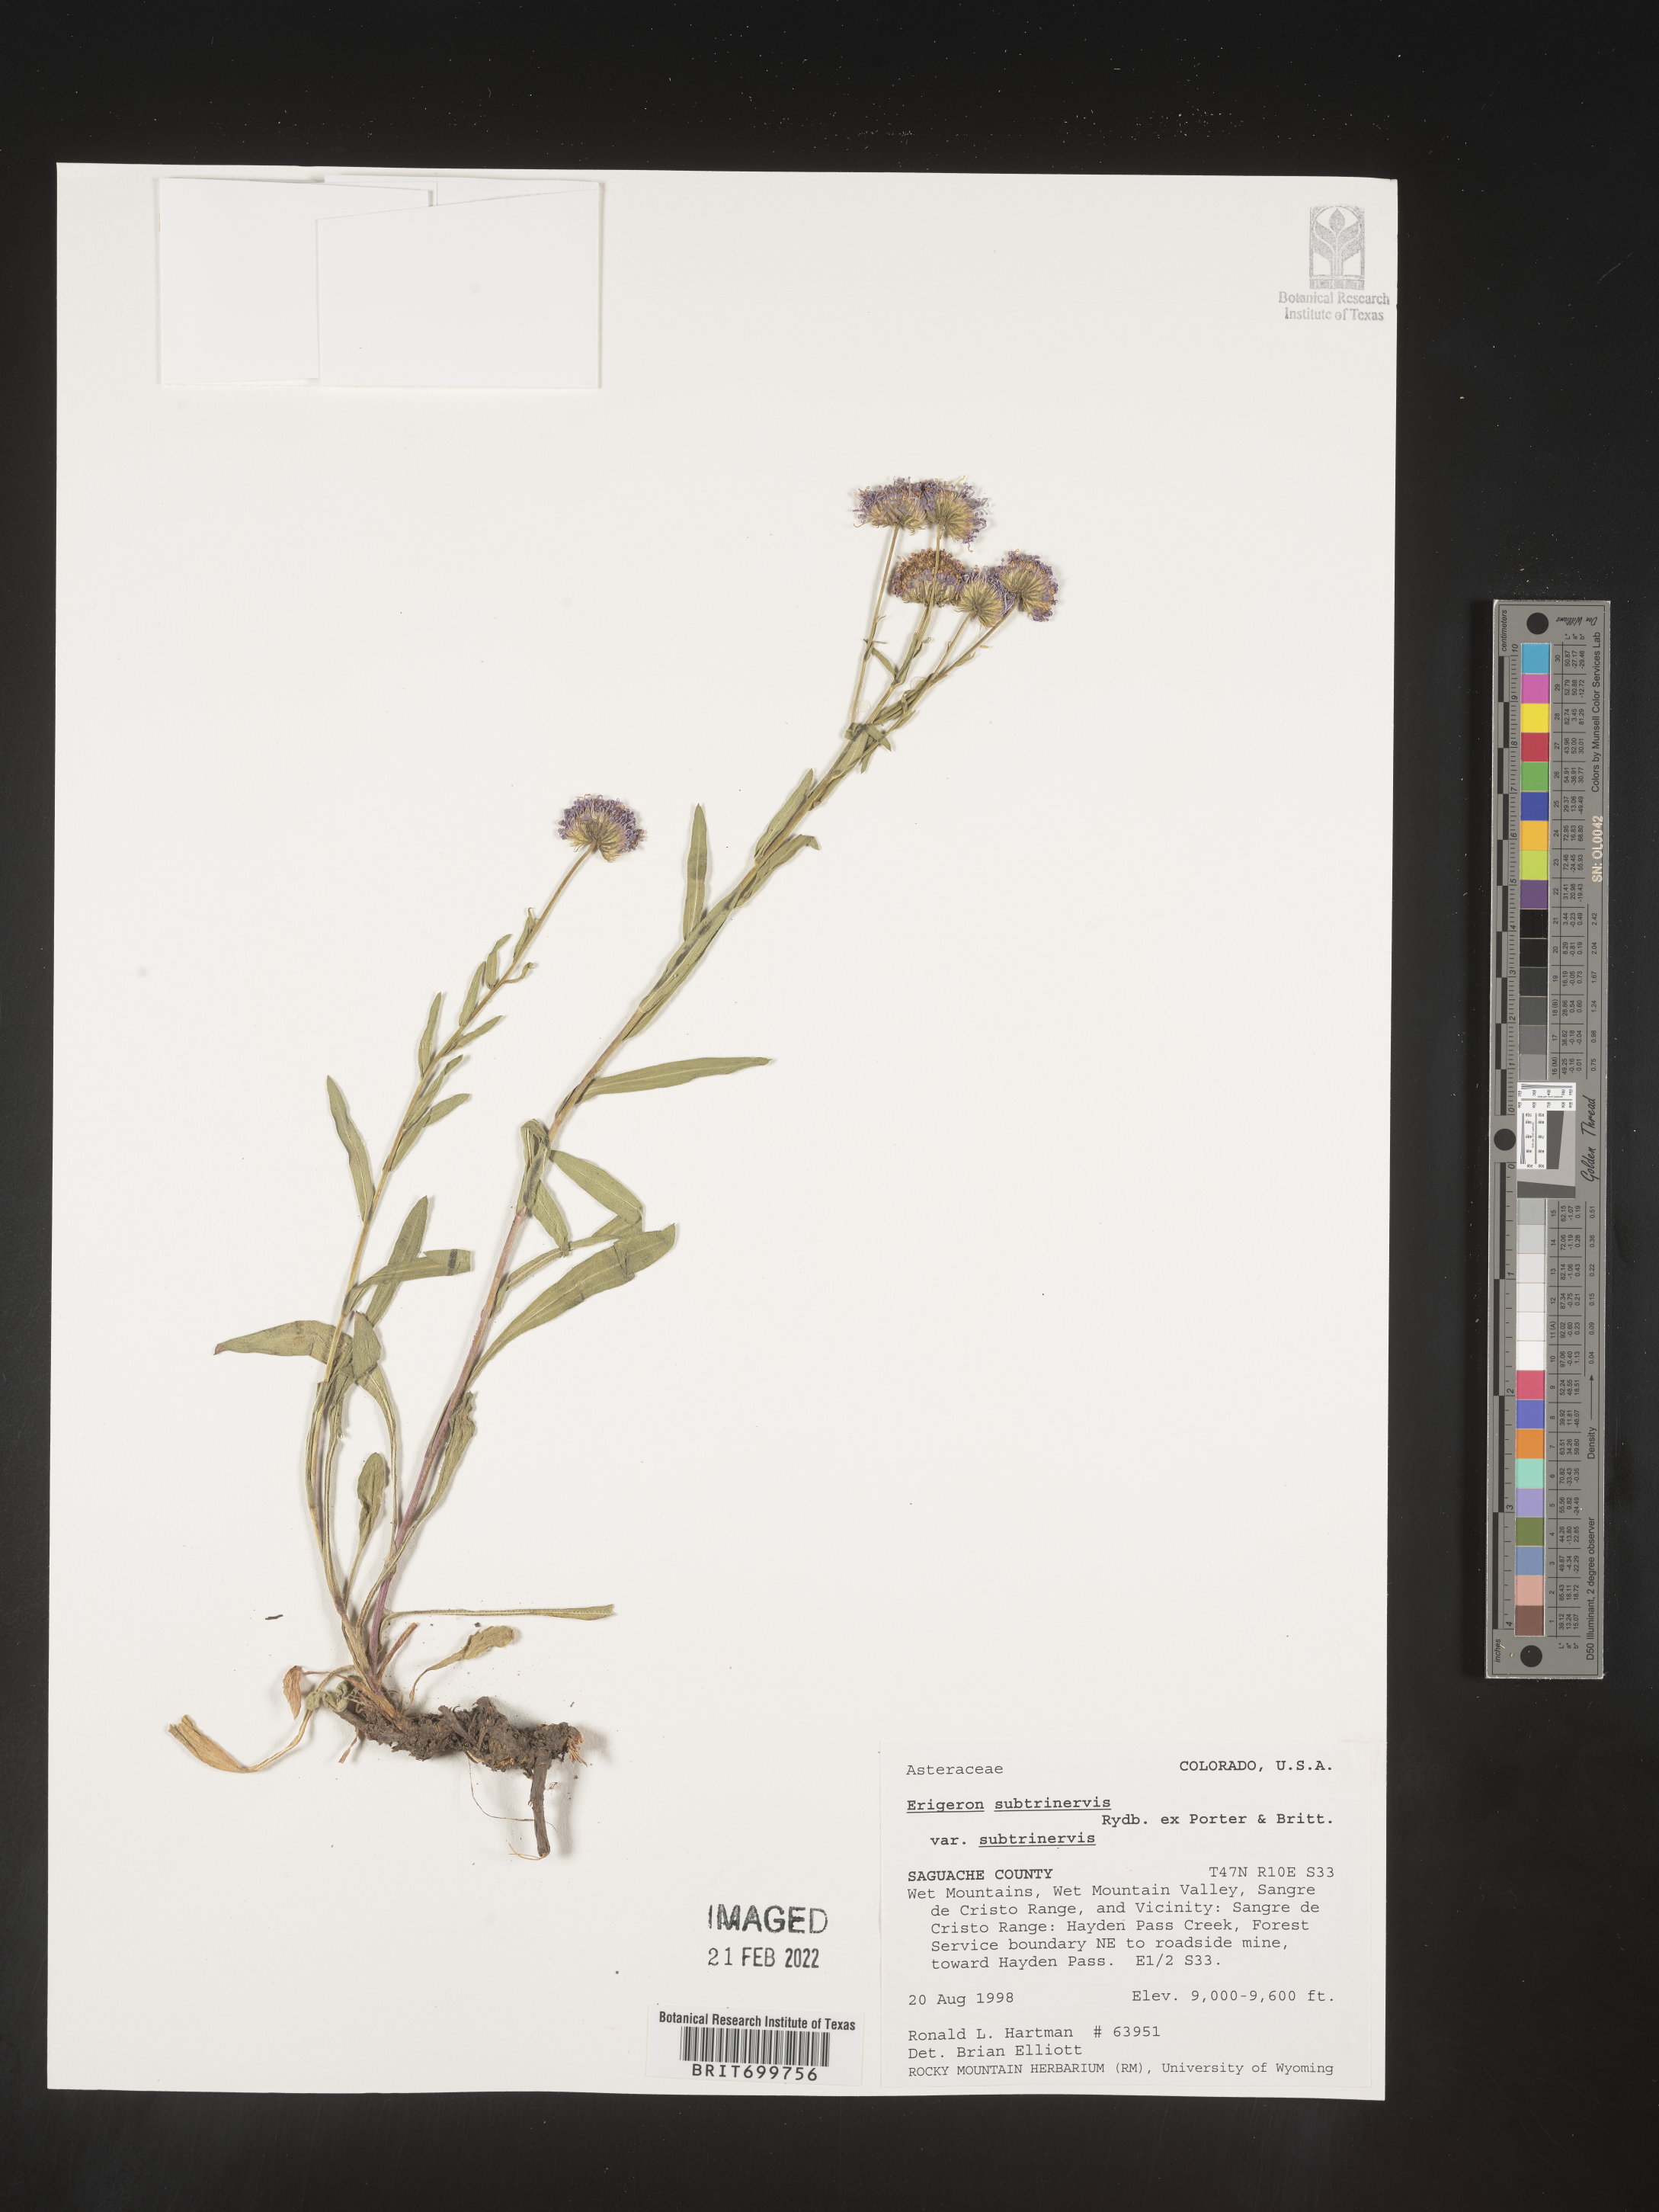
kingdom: Plantae
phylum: Tracheophyta
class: Magnoliopsida
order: Asterales
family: Asteraceae
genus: Erigeron
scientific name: Erigeron subtrinervis
